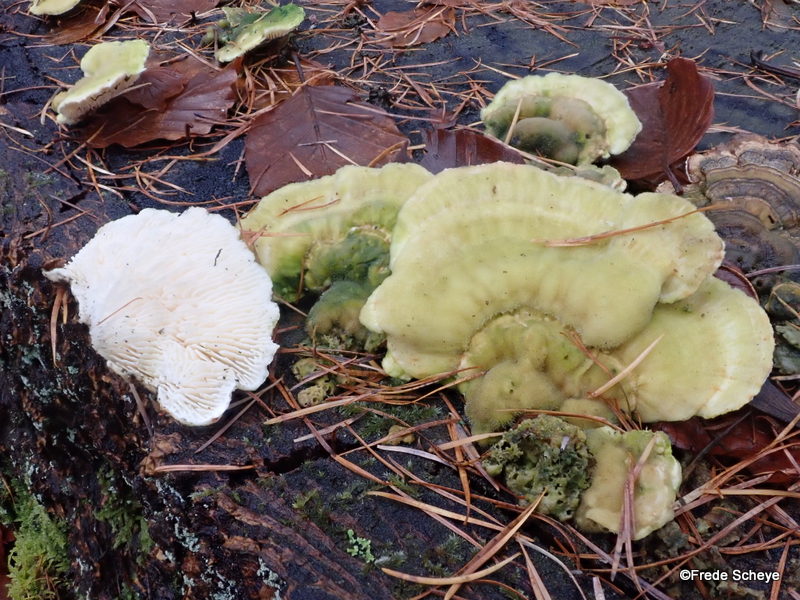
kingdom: Fungi
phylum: Basidiomycota
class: Agaricomycetes
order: Polyporales
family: Polyporaceae
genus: Lenzites
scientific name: Lenzites betulinus
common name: birke-læderporesvamp
